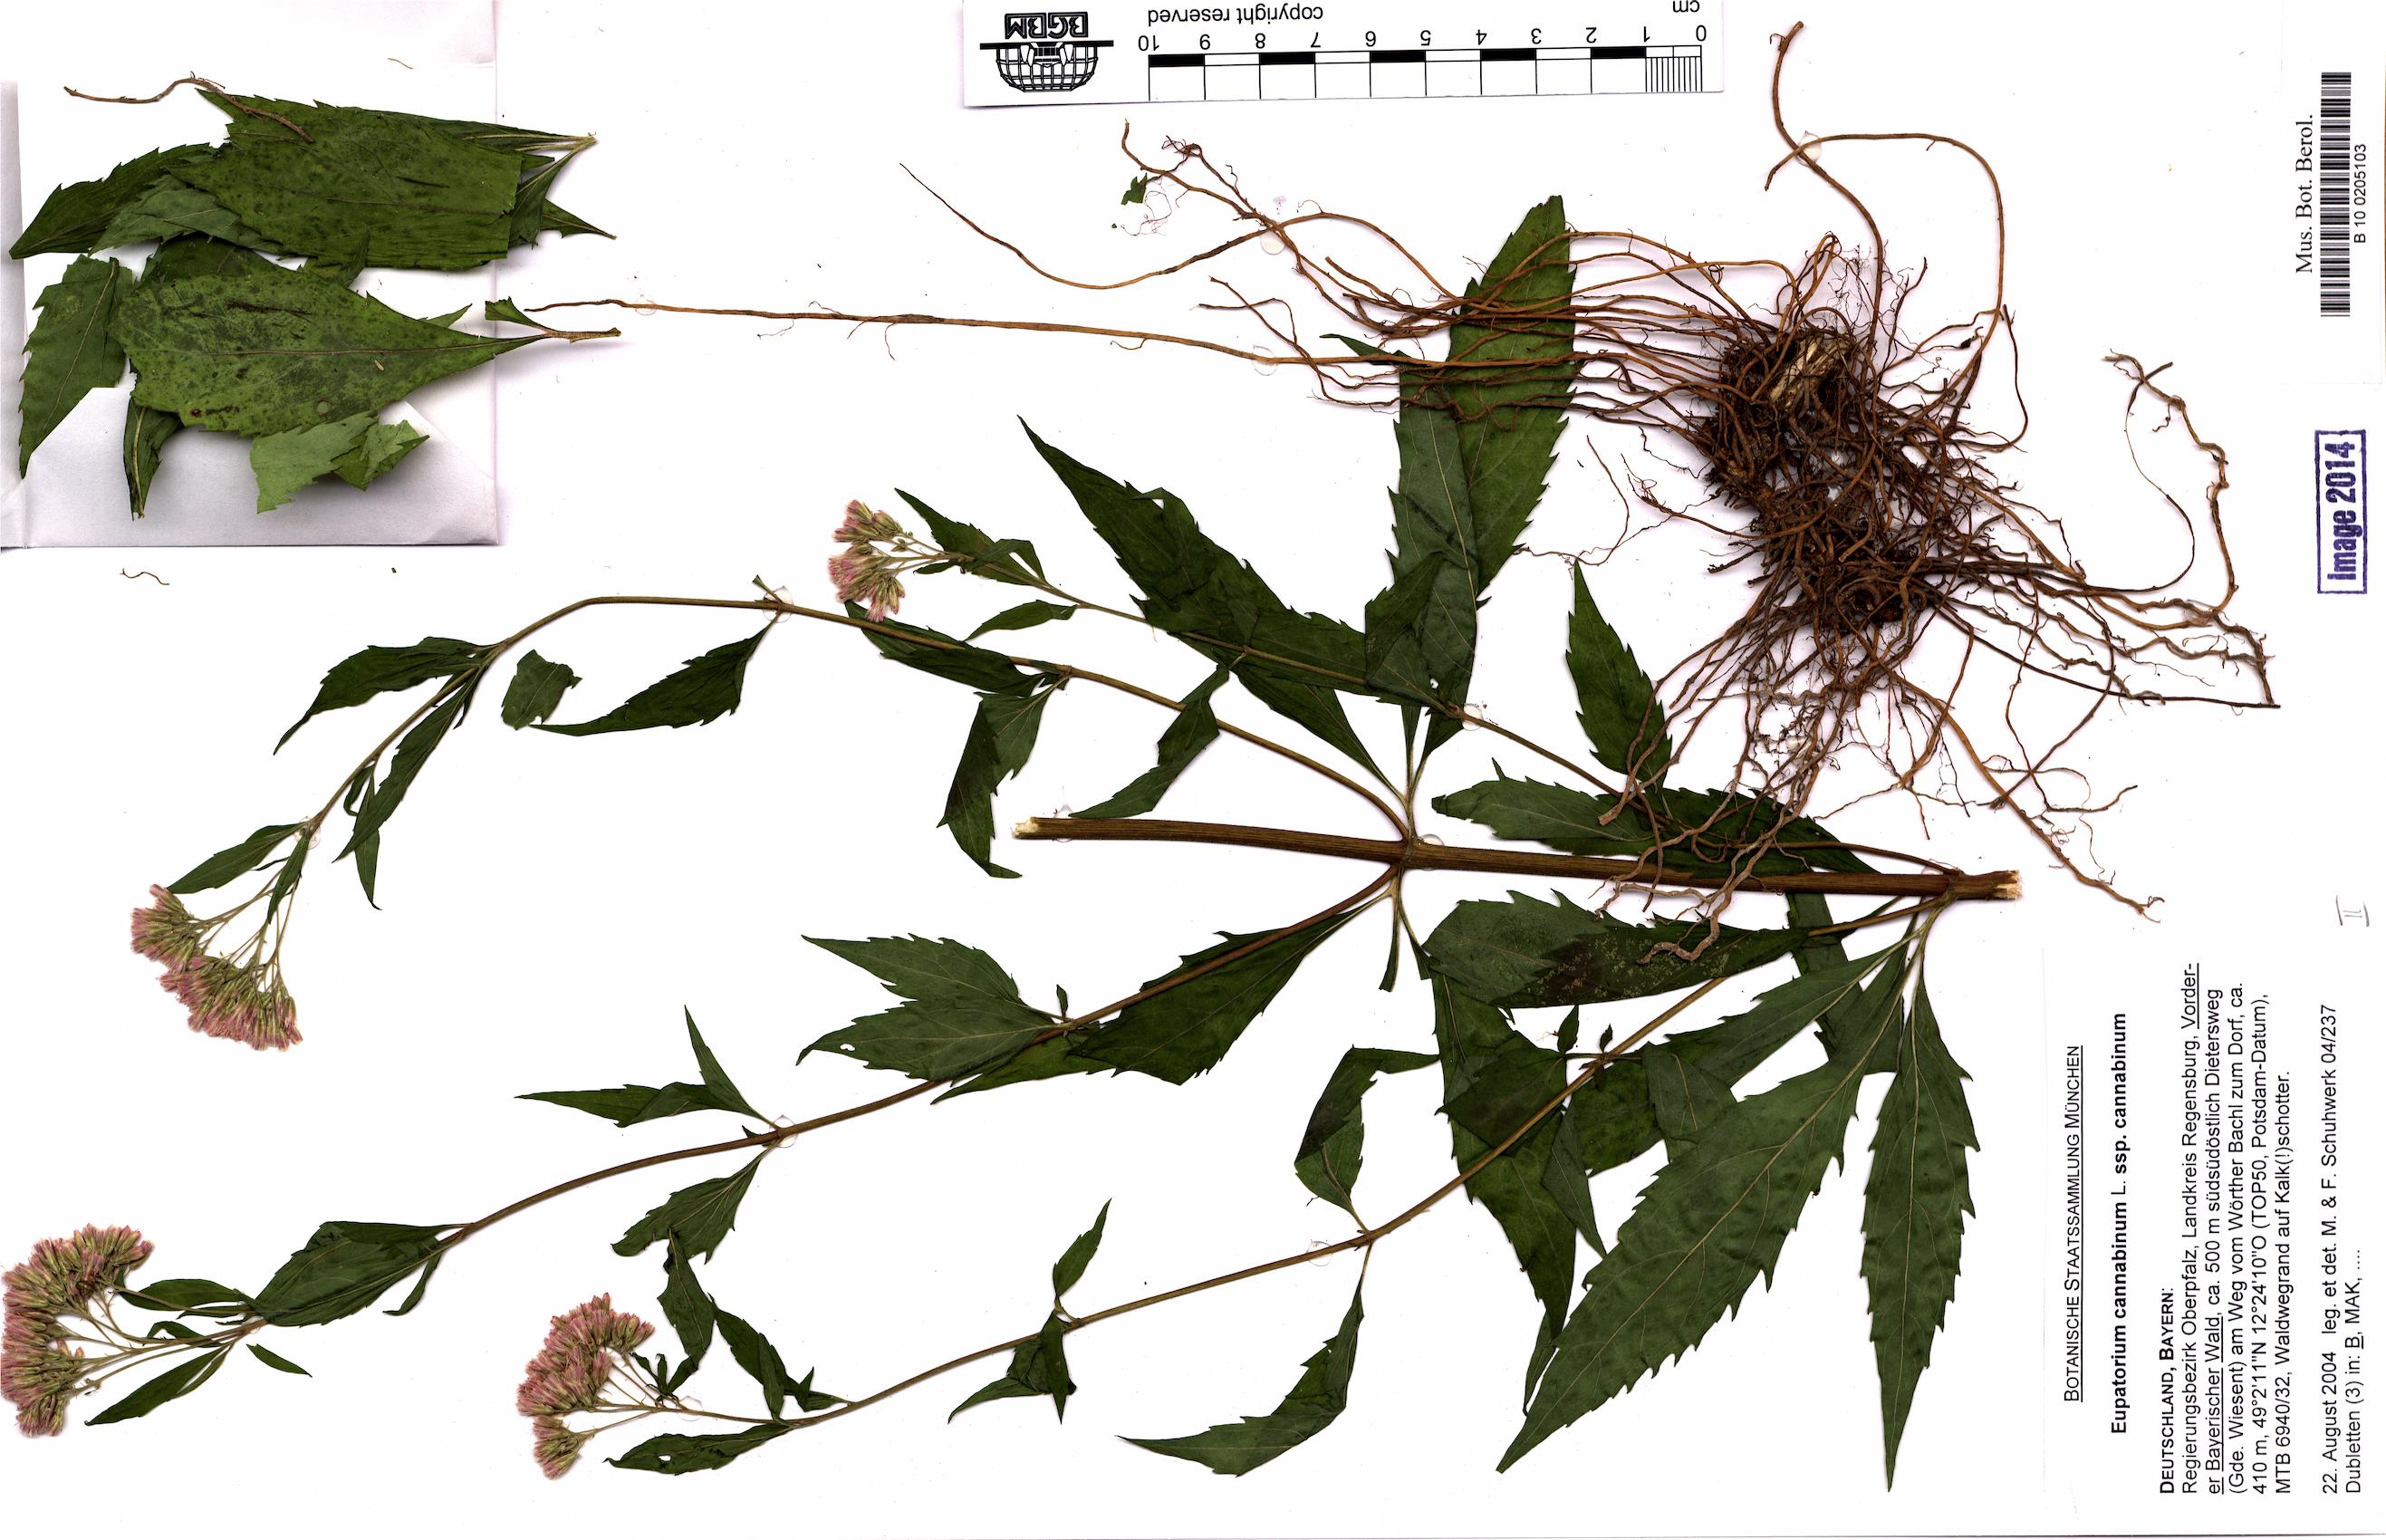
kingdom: Plantae
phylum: Tracheophyta
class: Magnoliopsida
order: Asterales
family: Asteraceae
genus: Echinops
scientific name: Echinops exaltatus
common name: Globe-thistle
